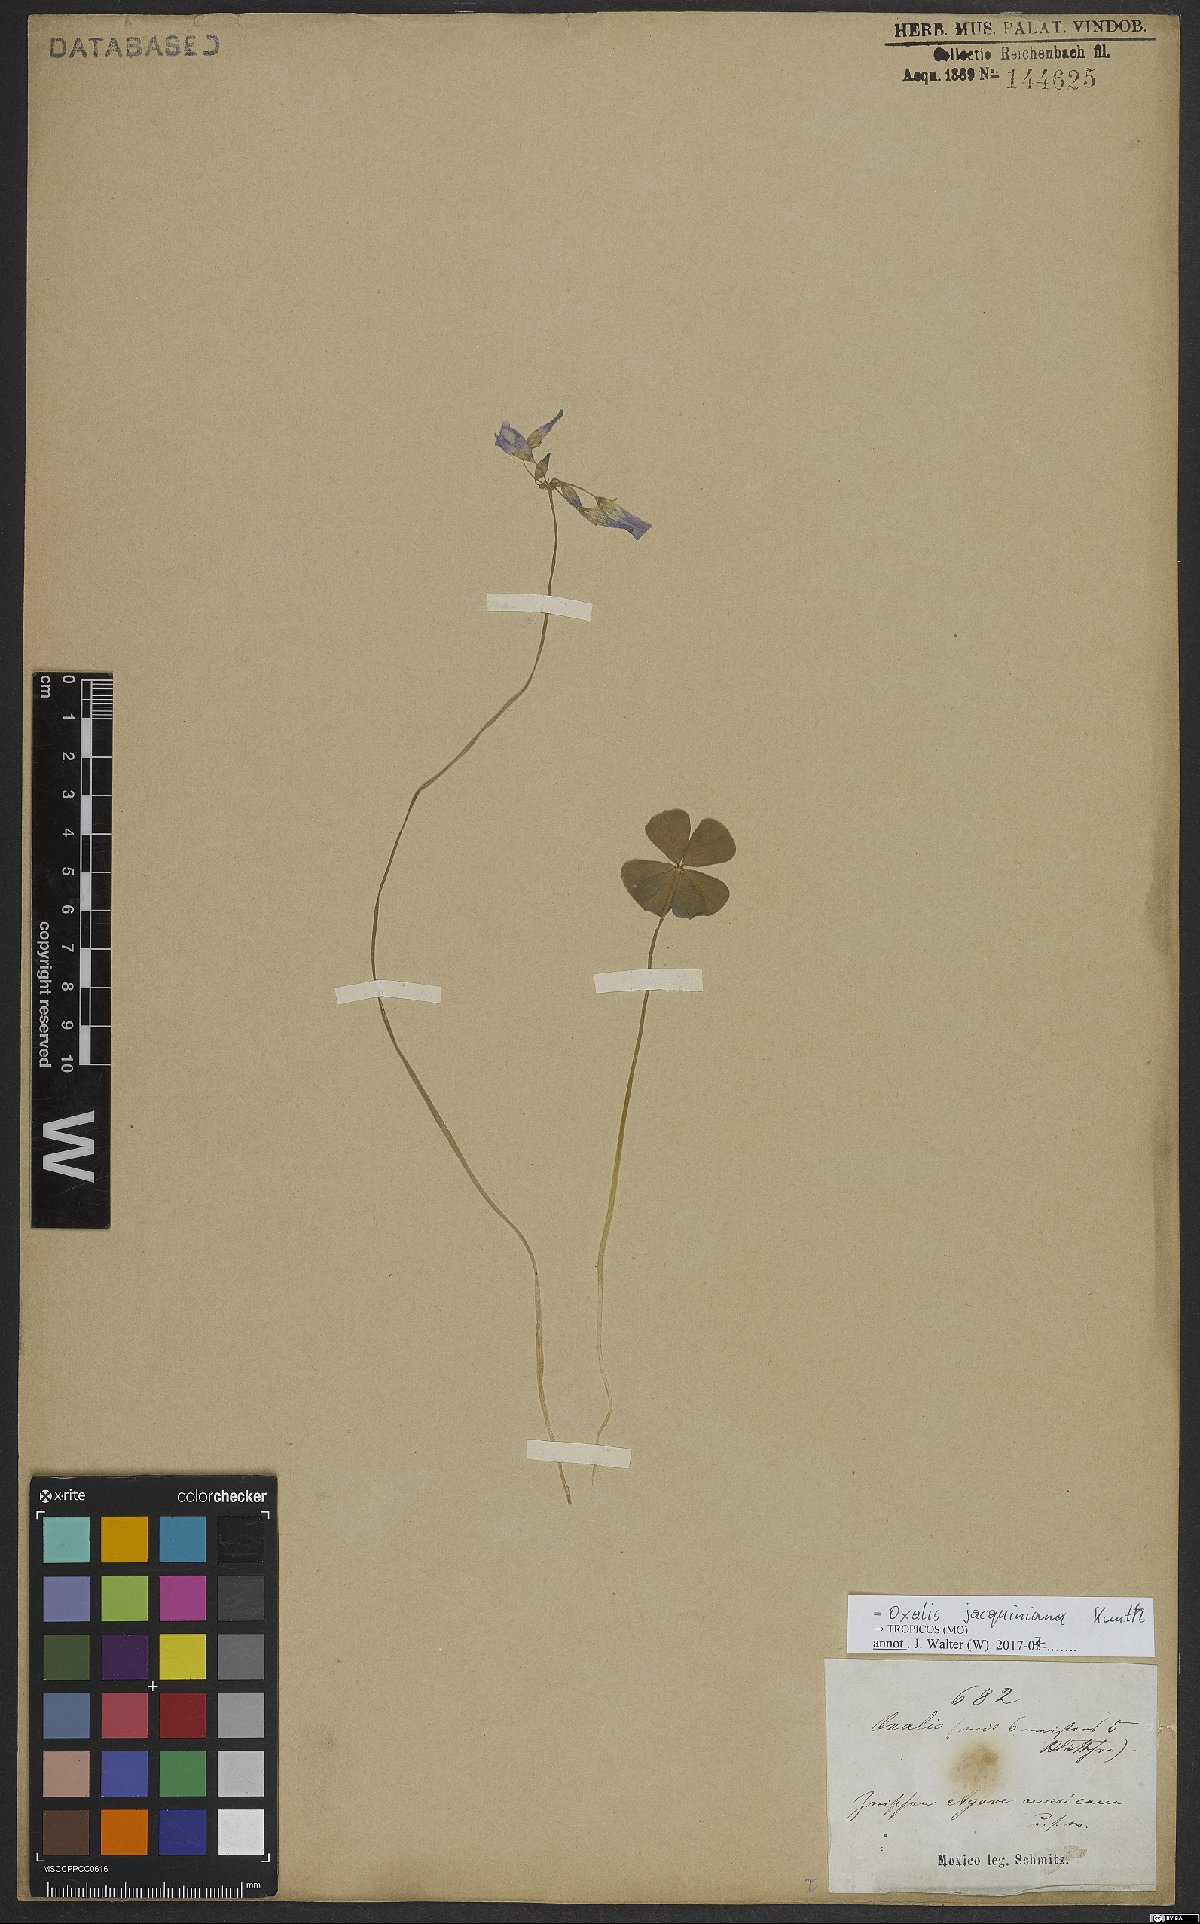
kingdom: Plantae
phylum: Tracheophyta
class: Magnoliopsida
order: Oxalidales
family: Oxalidaceae
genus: Oxalis
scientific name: Oxalis jacquiniana
